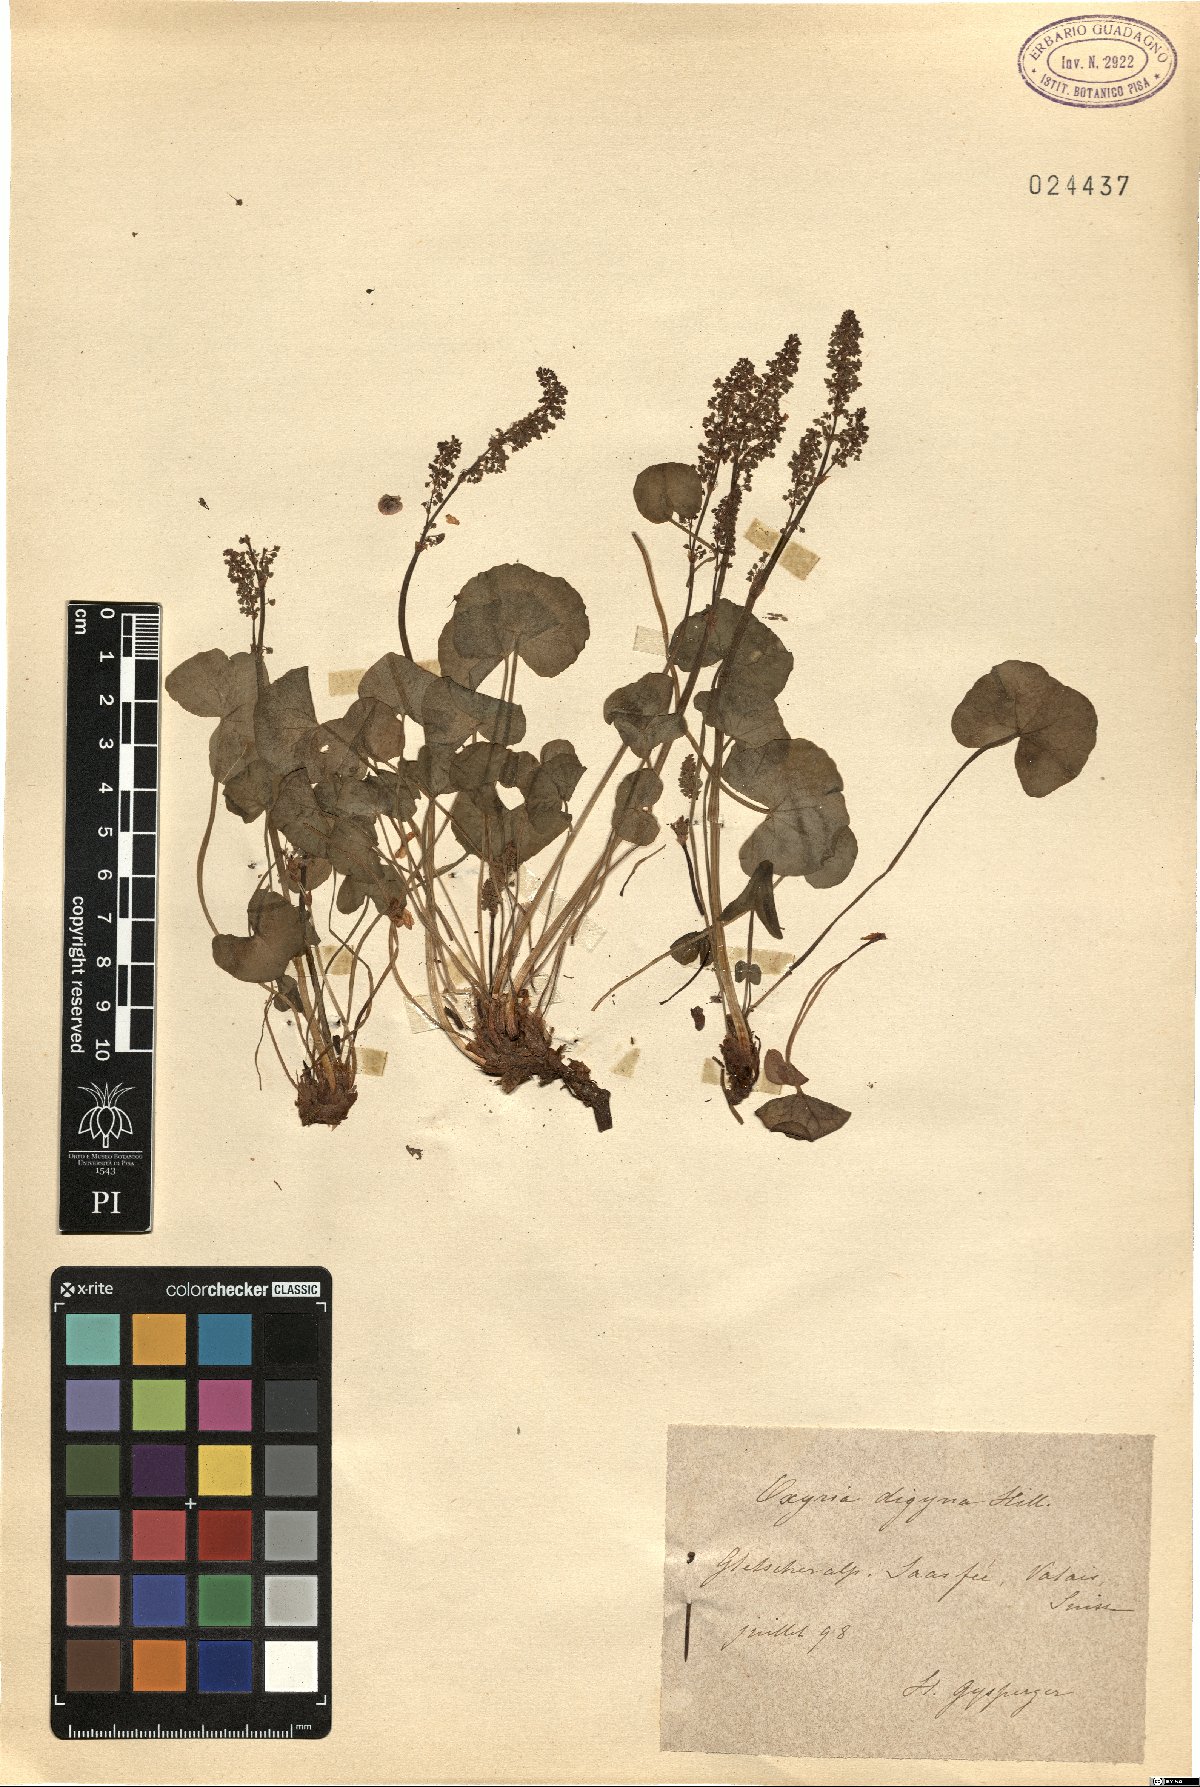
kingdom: Plantae
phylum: Tracheophyta
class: Magnoliopsida
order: Caryophyllales
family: Polygonaceae
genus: Oxyria
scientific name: Oxyria digyna
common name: Alpine mountain-sorrel
